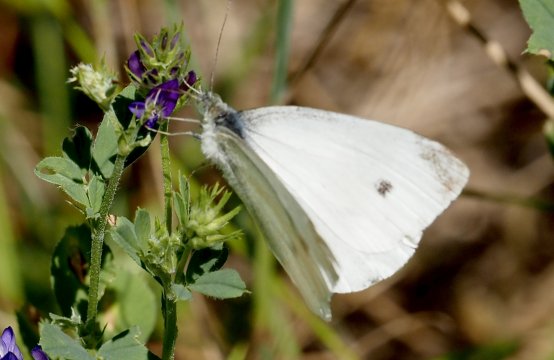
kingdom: Animalia
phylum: Arthropoda
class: Insecta
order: Lepidoptera
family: Pieridae
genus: Pieris
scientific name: Pieris rapae
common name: Cabbage White
